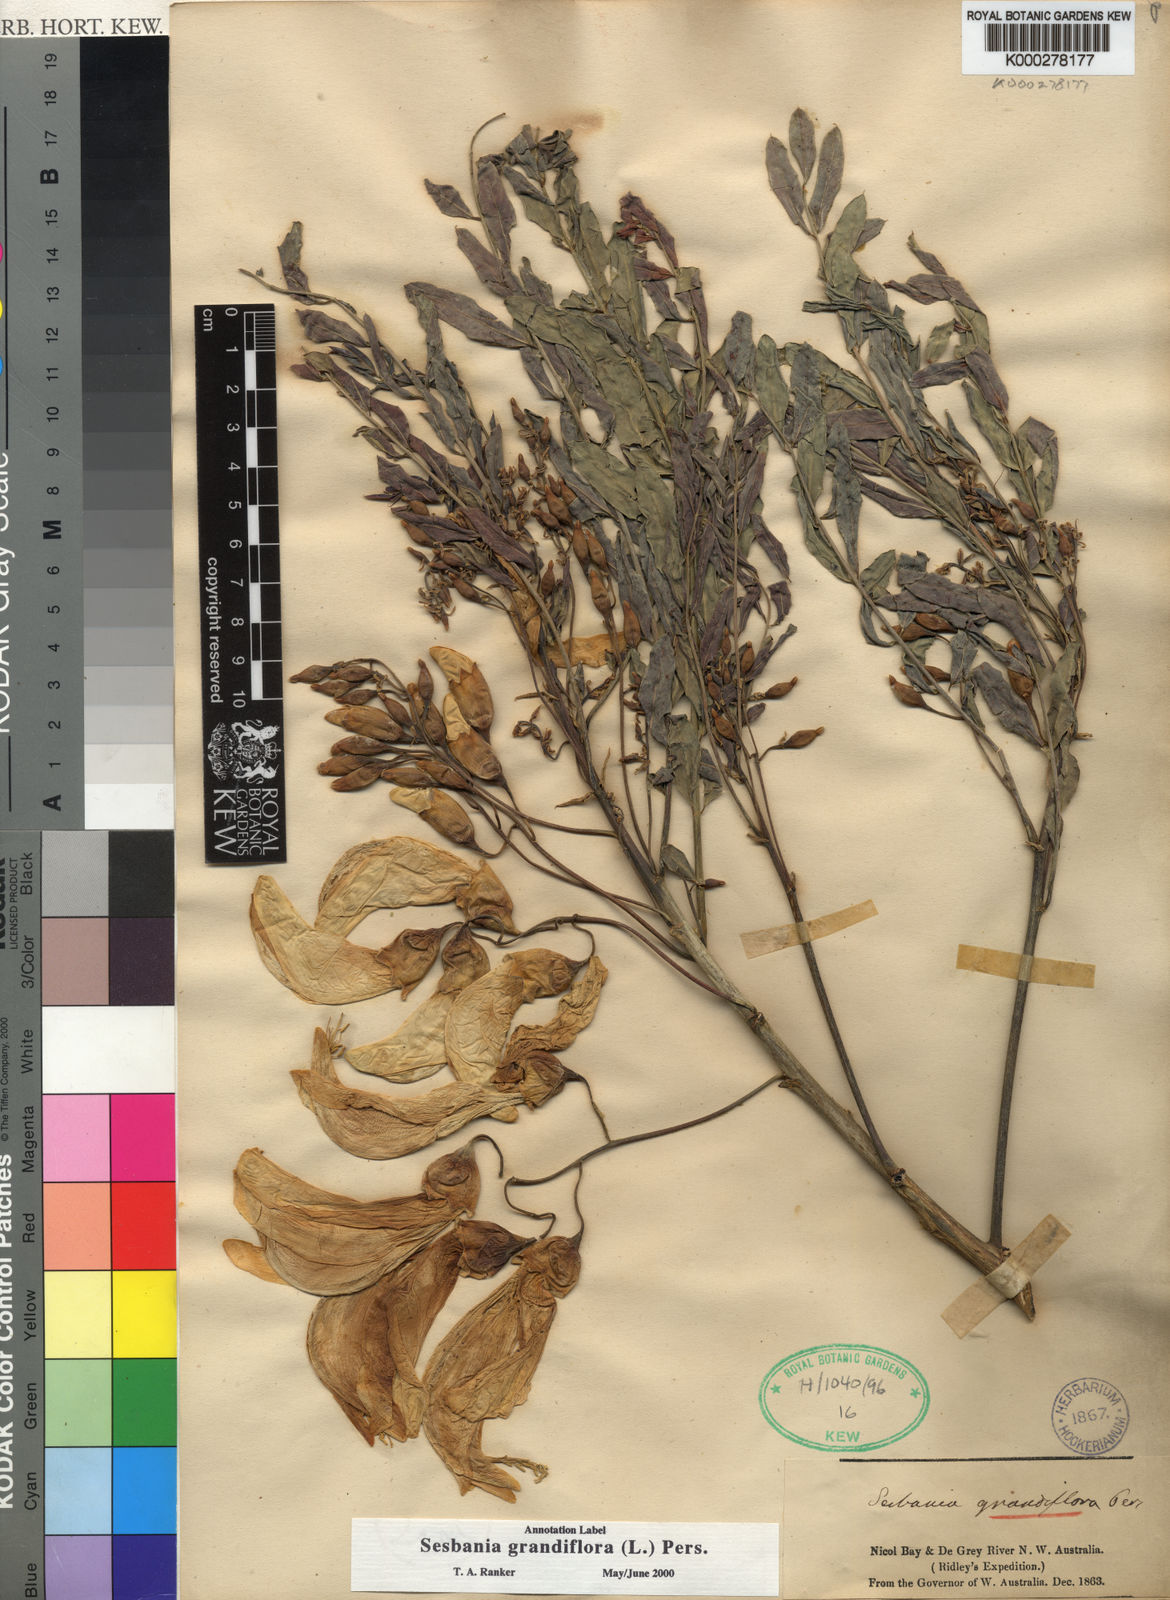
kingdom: Plantae
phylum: Tracheophyta
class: Magnoliopsida
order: Fabales
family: Fabaceae
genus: Sesbania
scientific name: Sesbania
